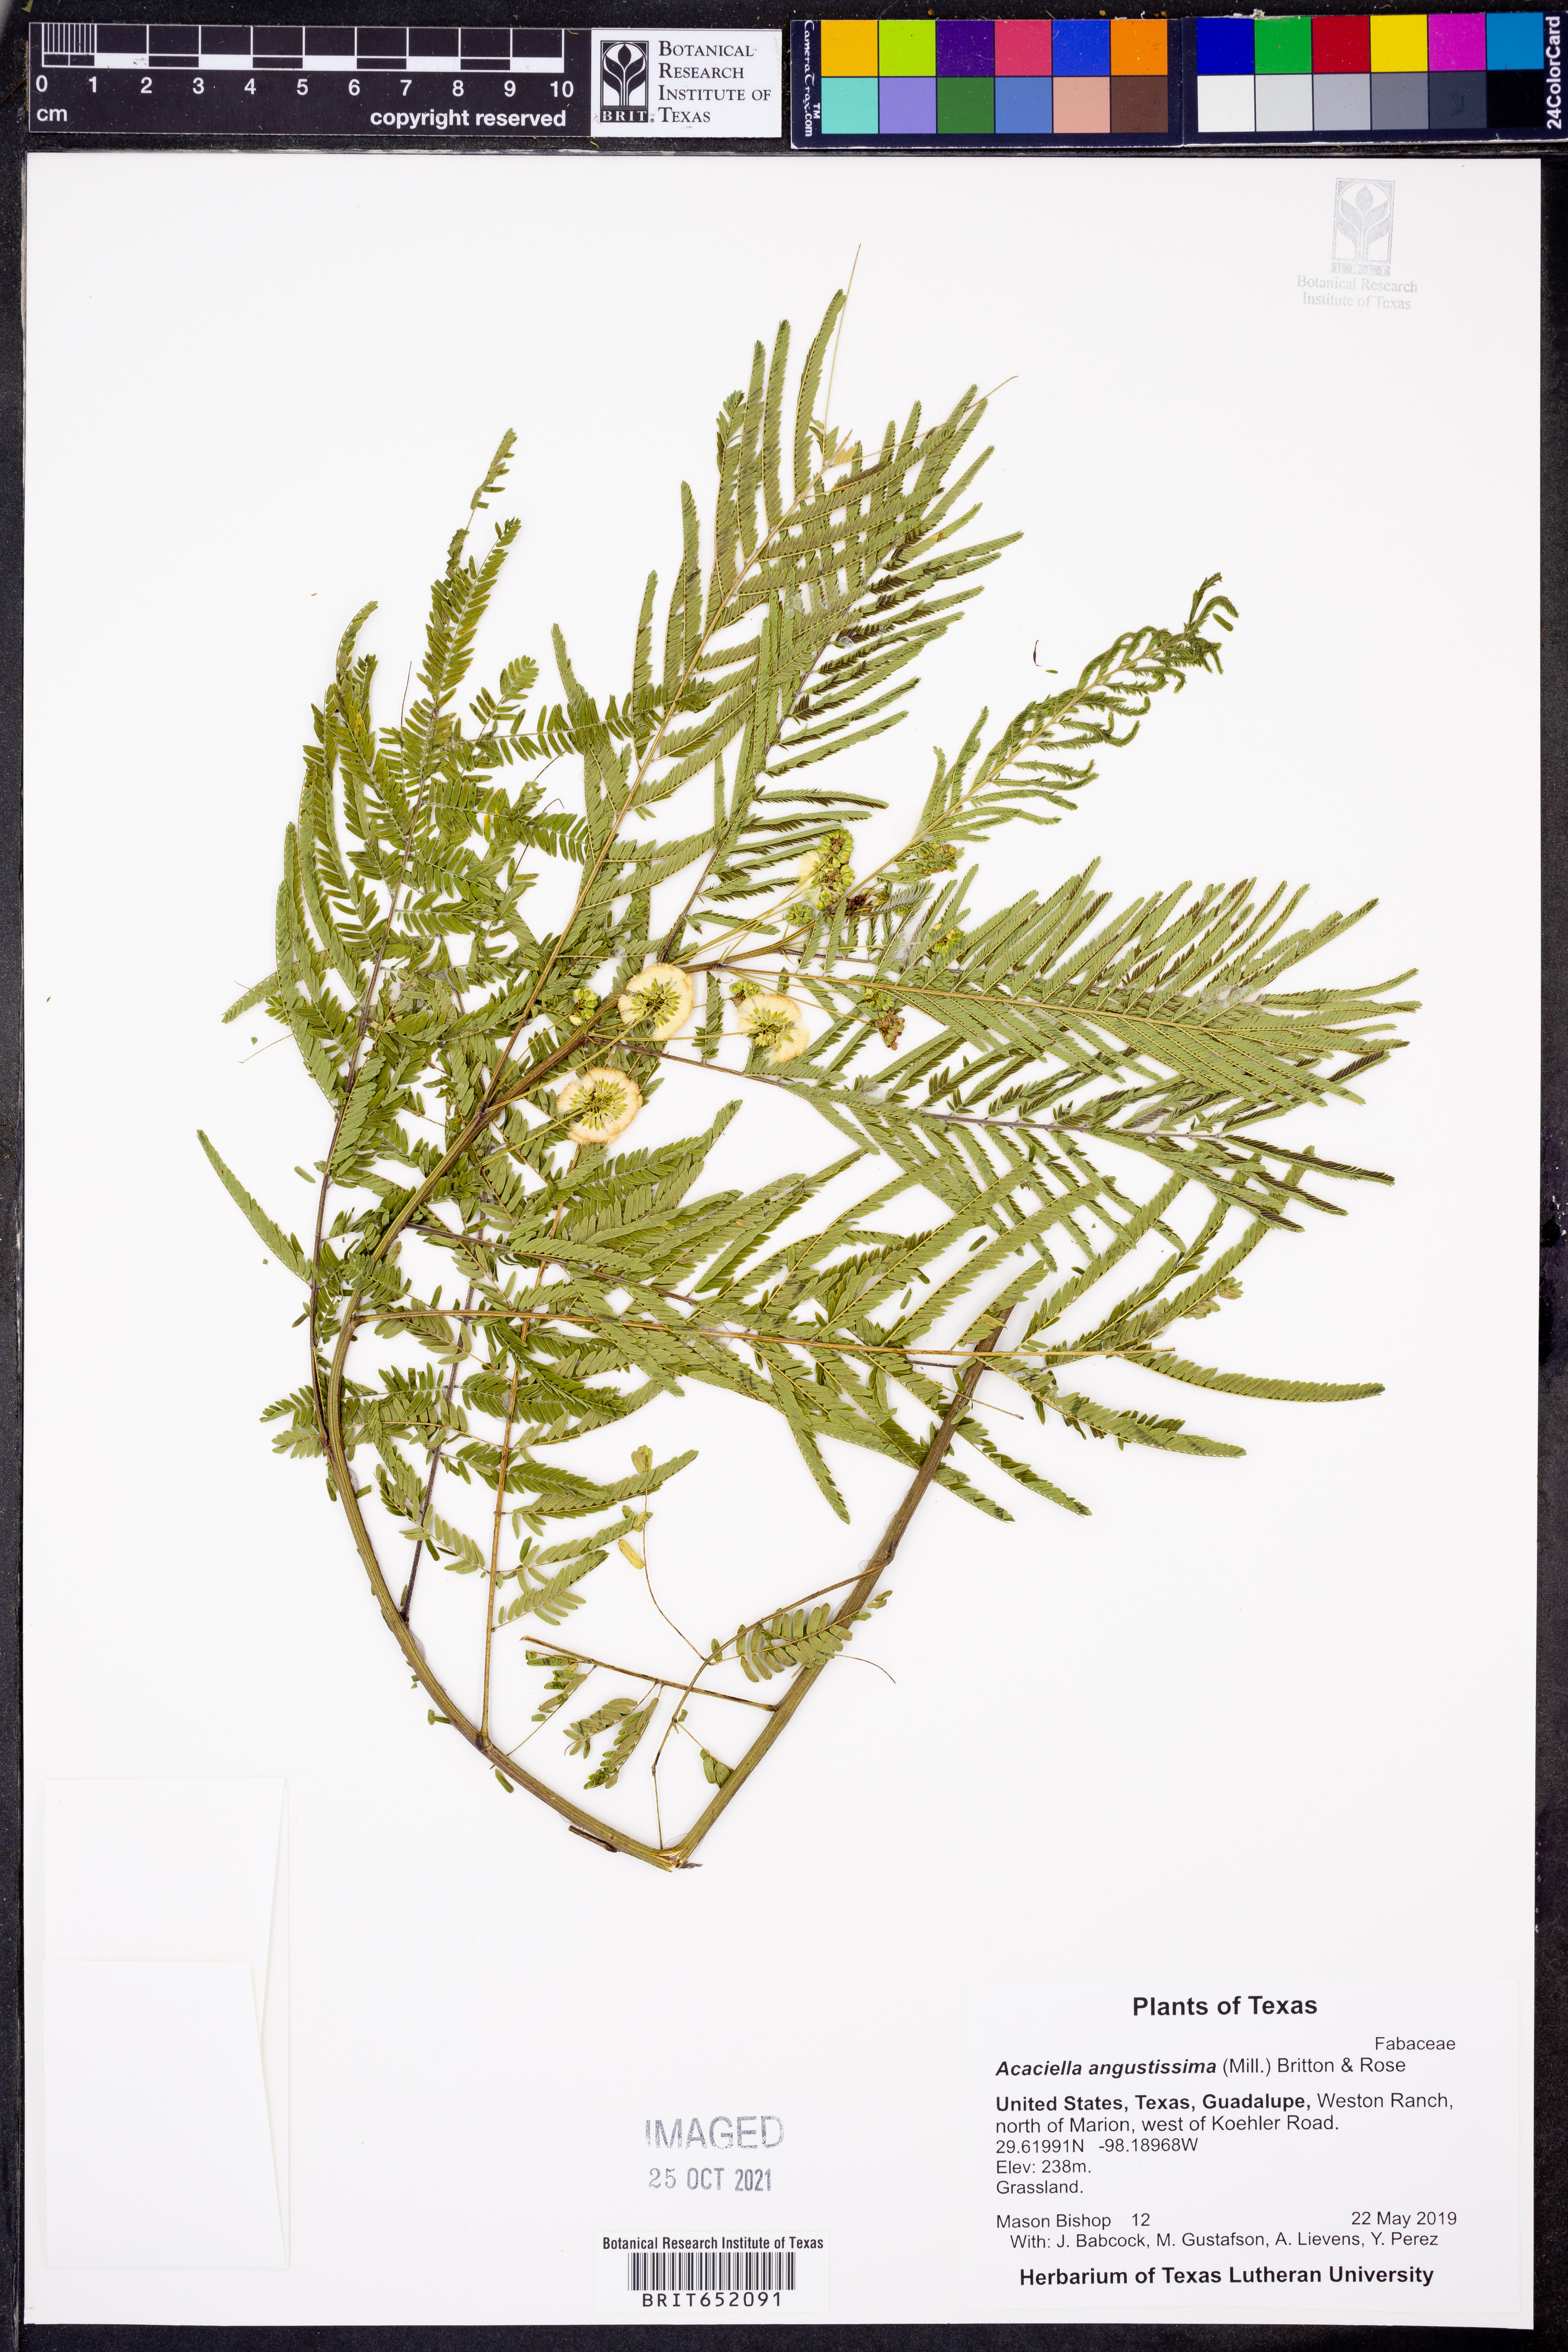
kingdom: Plantae
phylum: Tracheophyta
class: Magnoliopsida
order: Fabales
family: Fabaceae
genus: Acaciella
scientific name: Acaciella angustissima
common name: Prairie acacia
